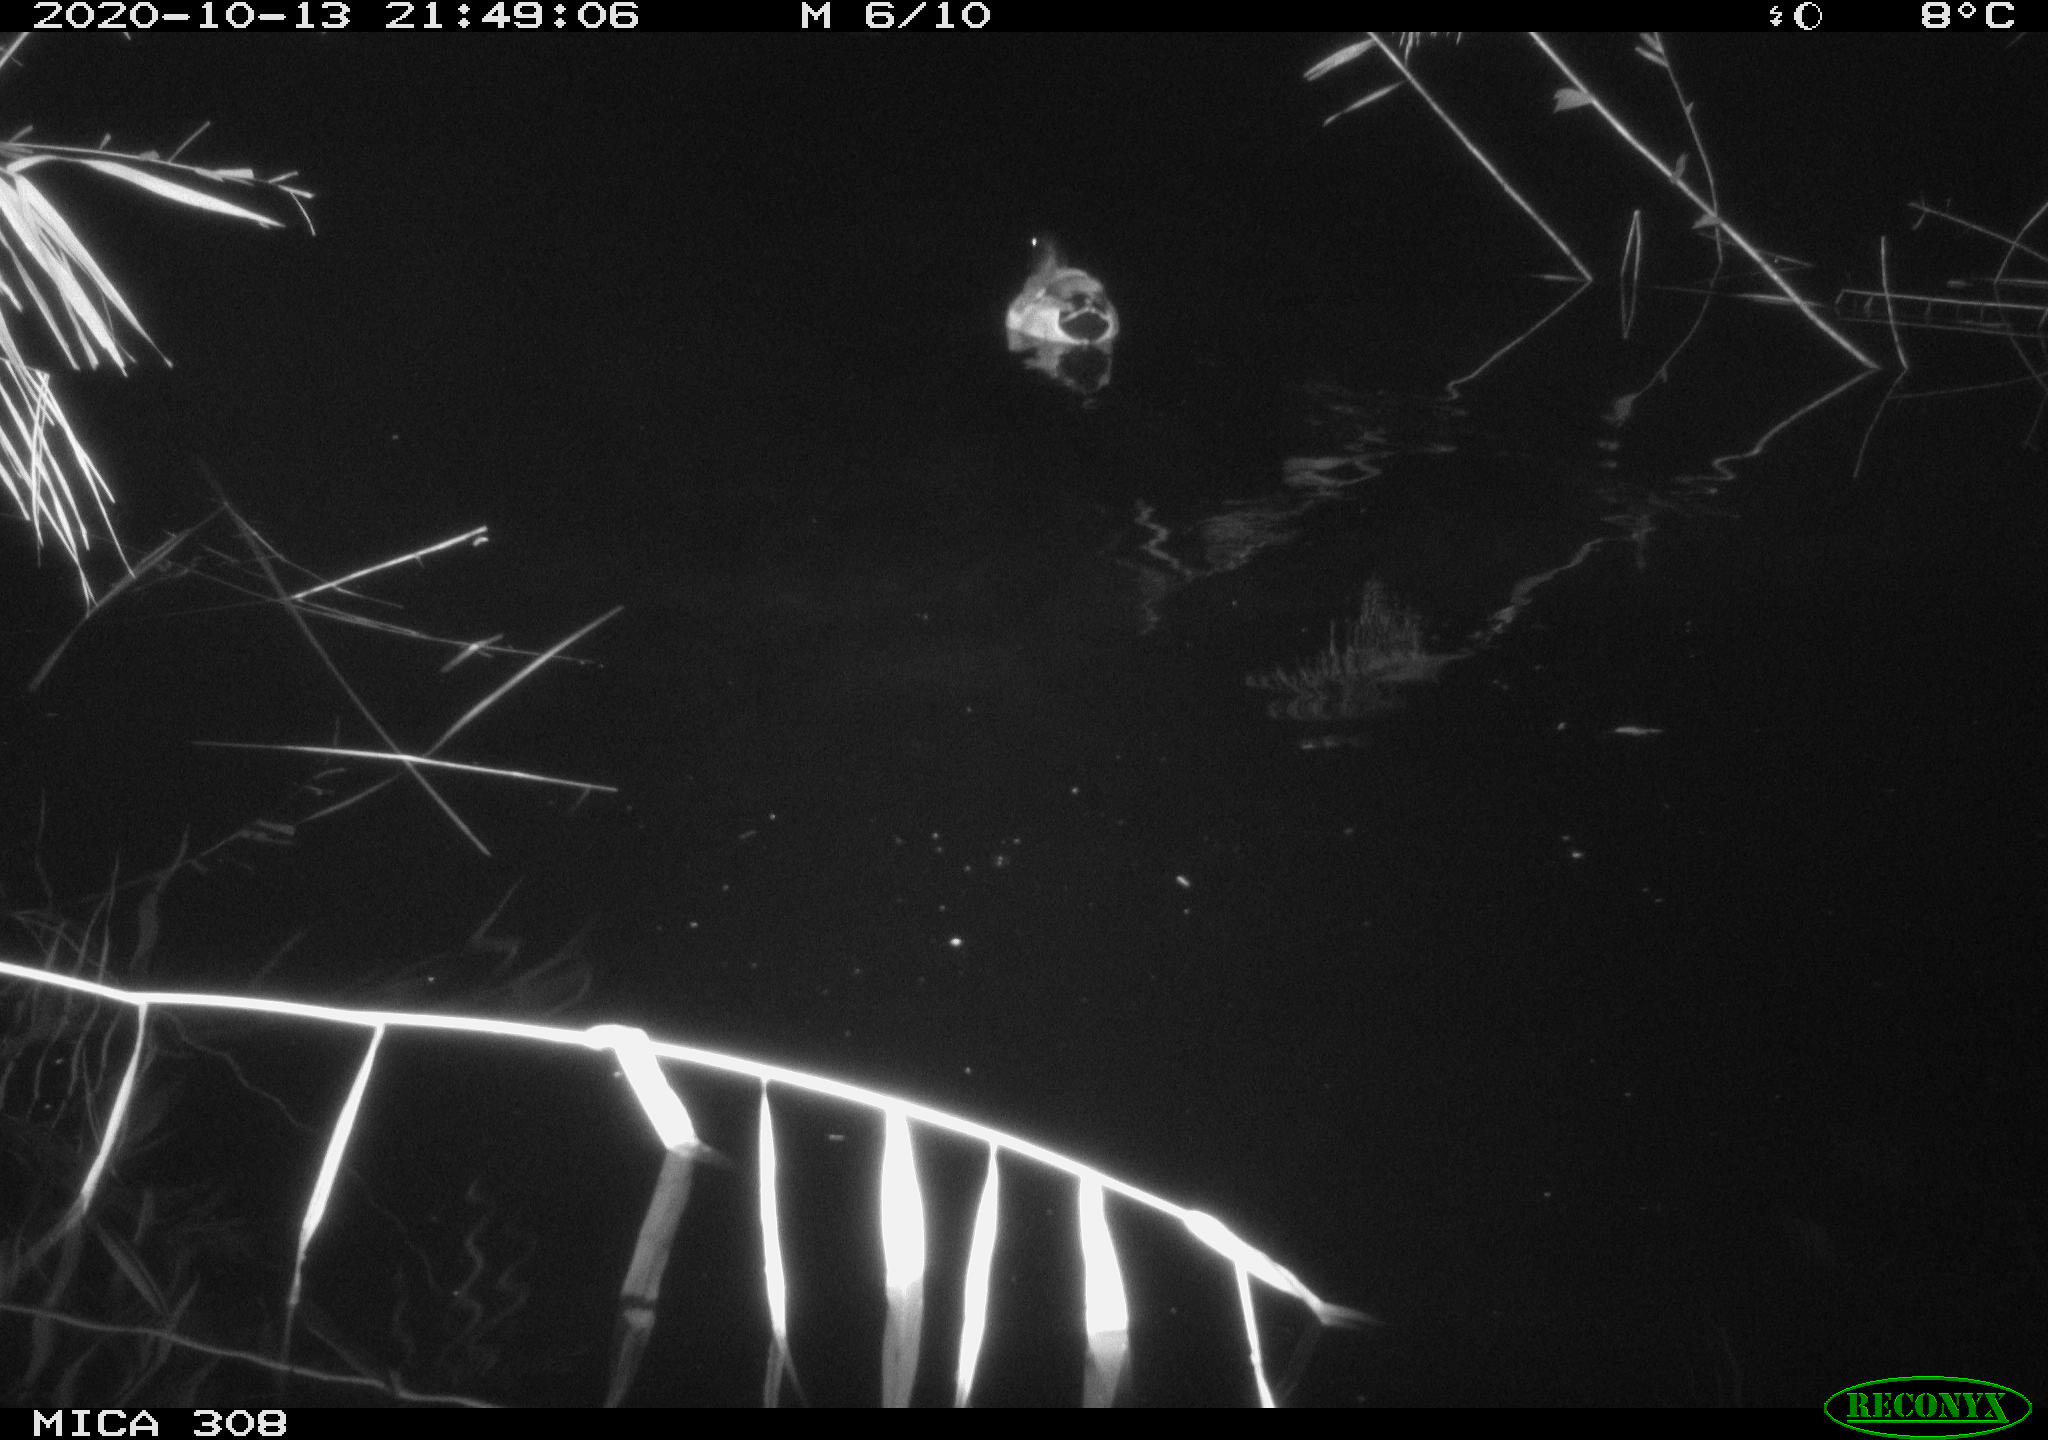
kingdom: Animalia
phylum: Chordata
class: Aves
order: Anseriformes
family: Anatidae
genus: Anas
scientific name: Anas platyrhynchos
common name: Mallard
